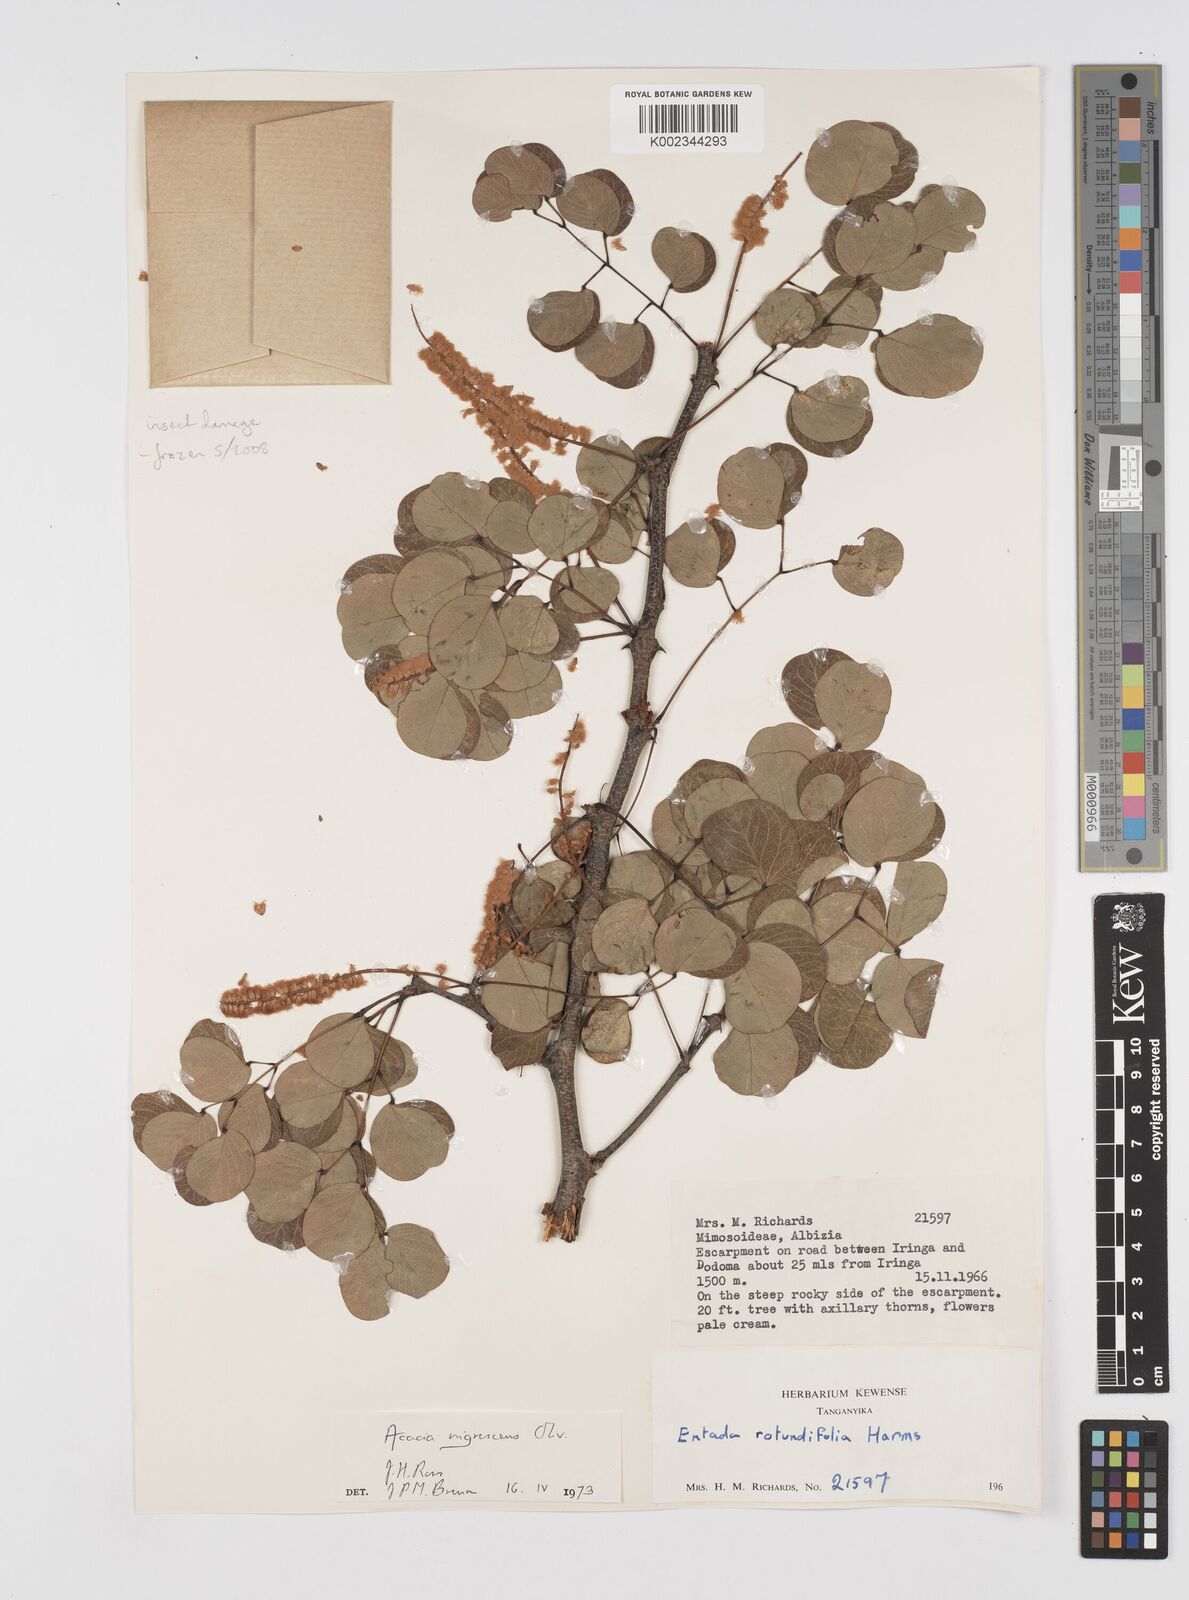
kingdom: Plantae
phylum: Tracheophyta
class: Magnoliopsida
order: Fabales
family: Fabaceae
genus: Senegalia
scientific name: Senegalia nigrescens
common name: Knobthorn
